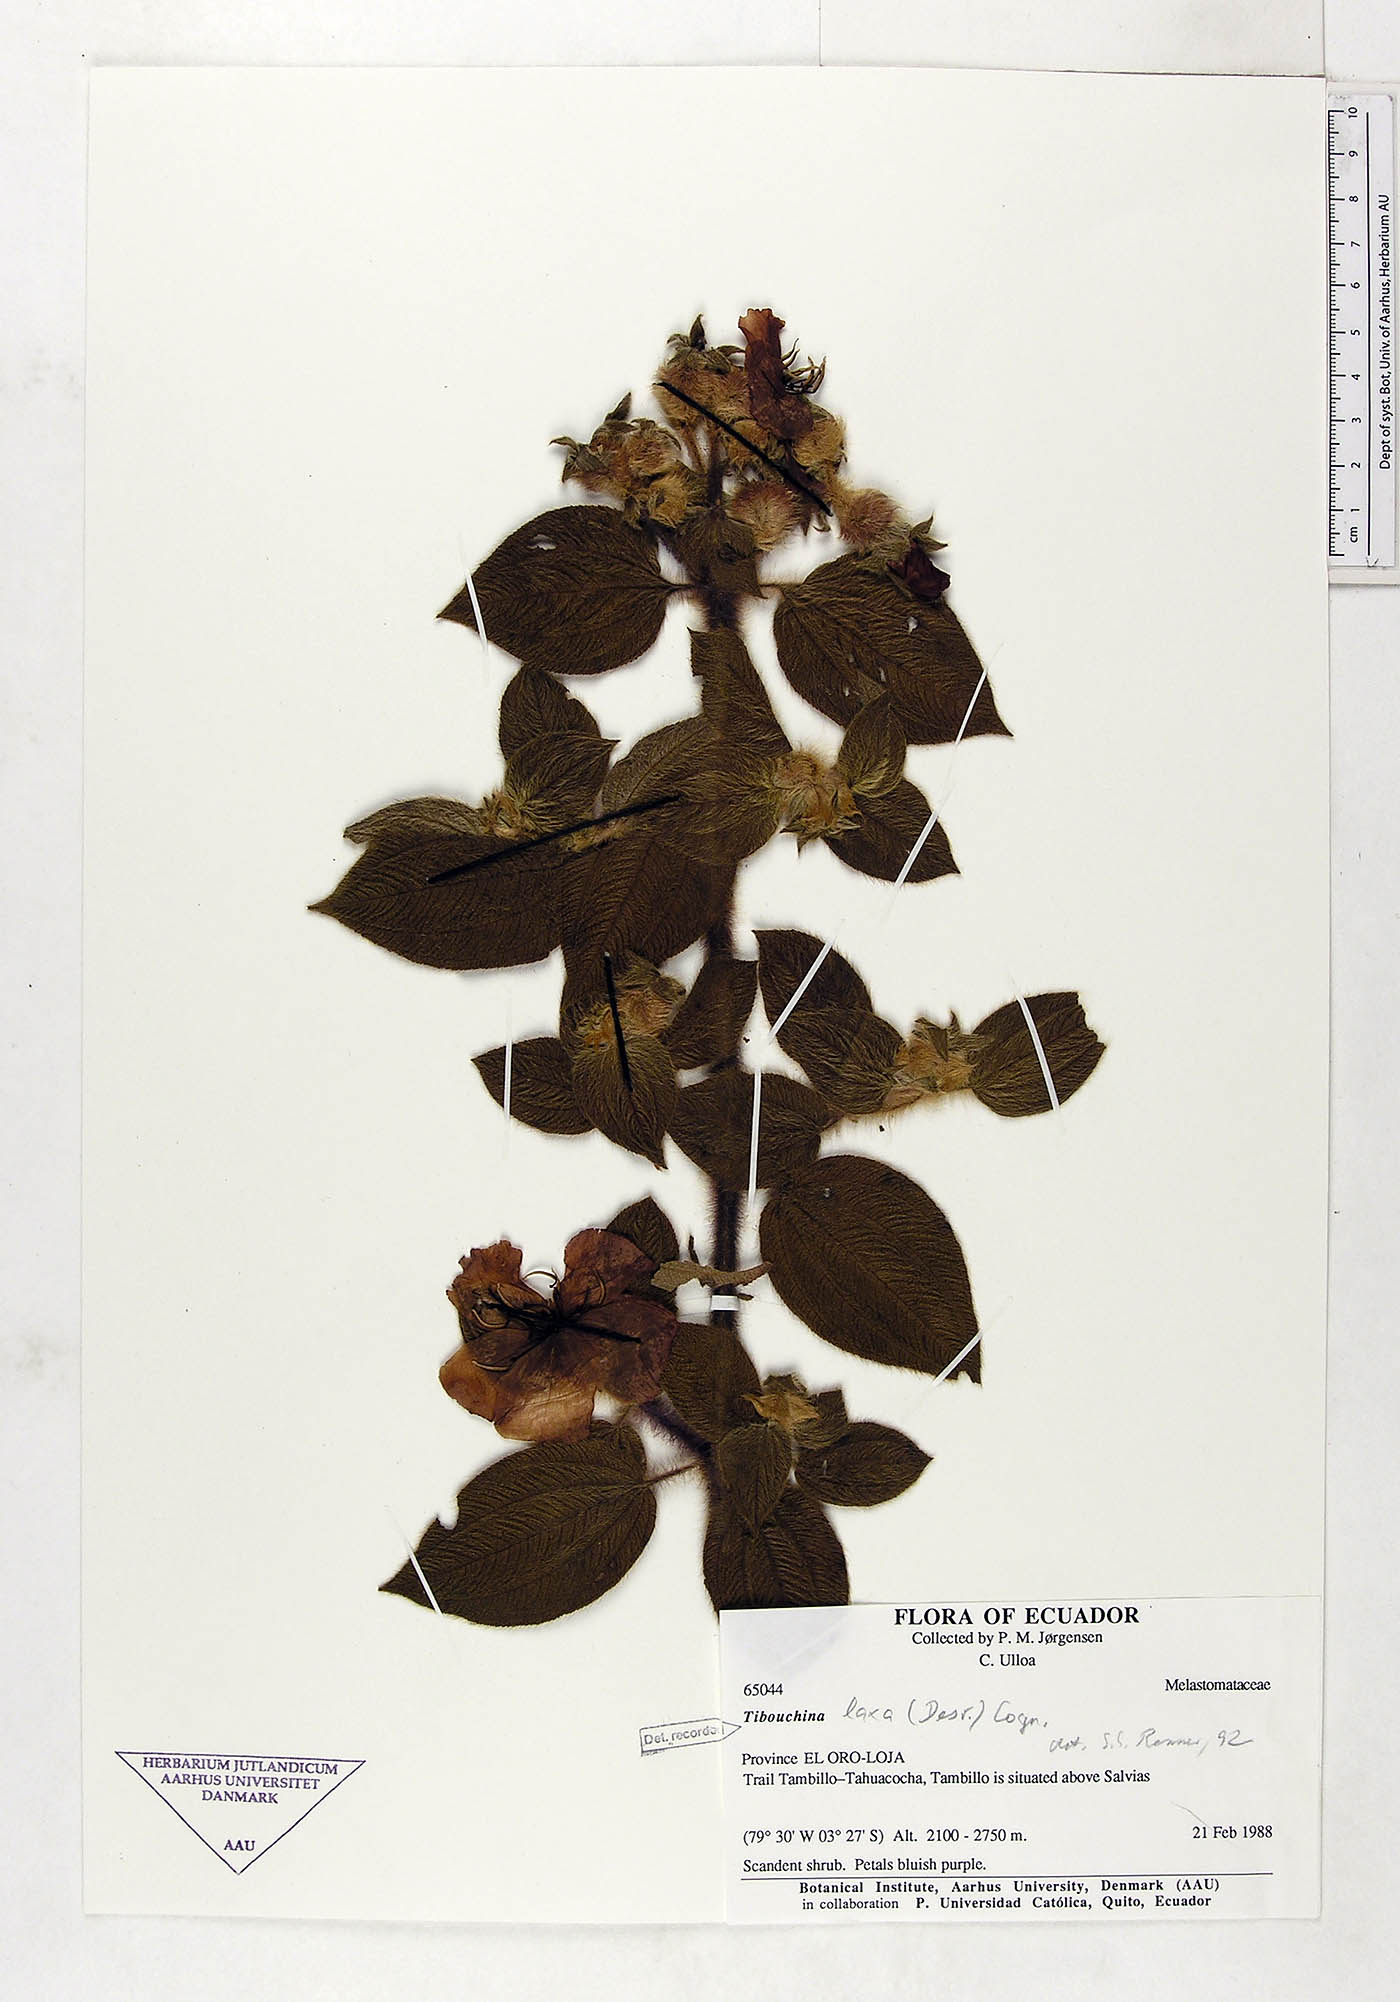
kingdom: Plantae
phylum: Tracheophyta
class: Magnoliopsida
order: Myrtales
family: Melastomataceae
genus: Chaetogastra
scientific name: Chaetogastra laxa
